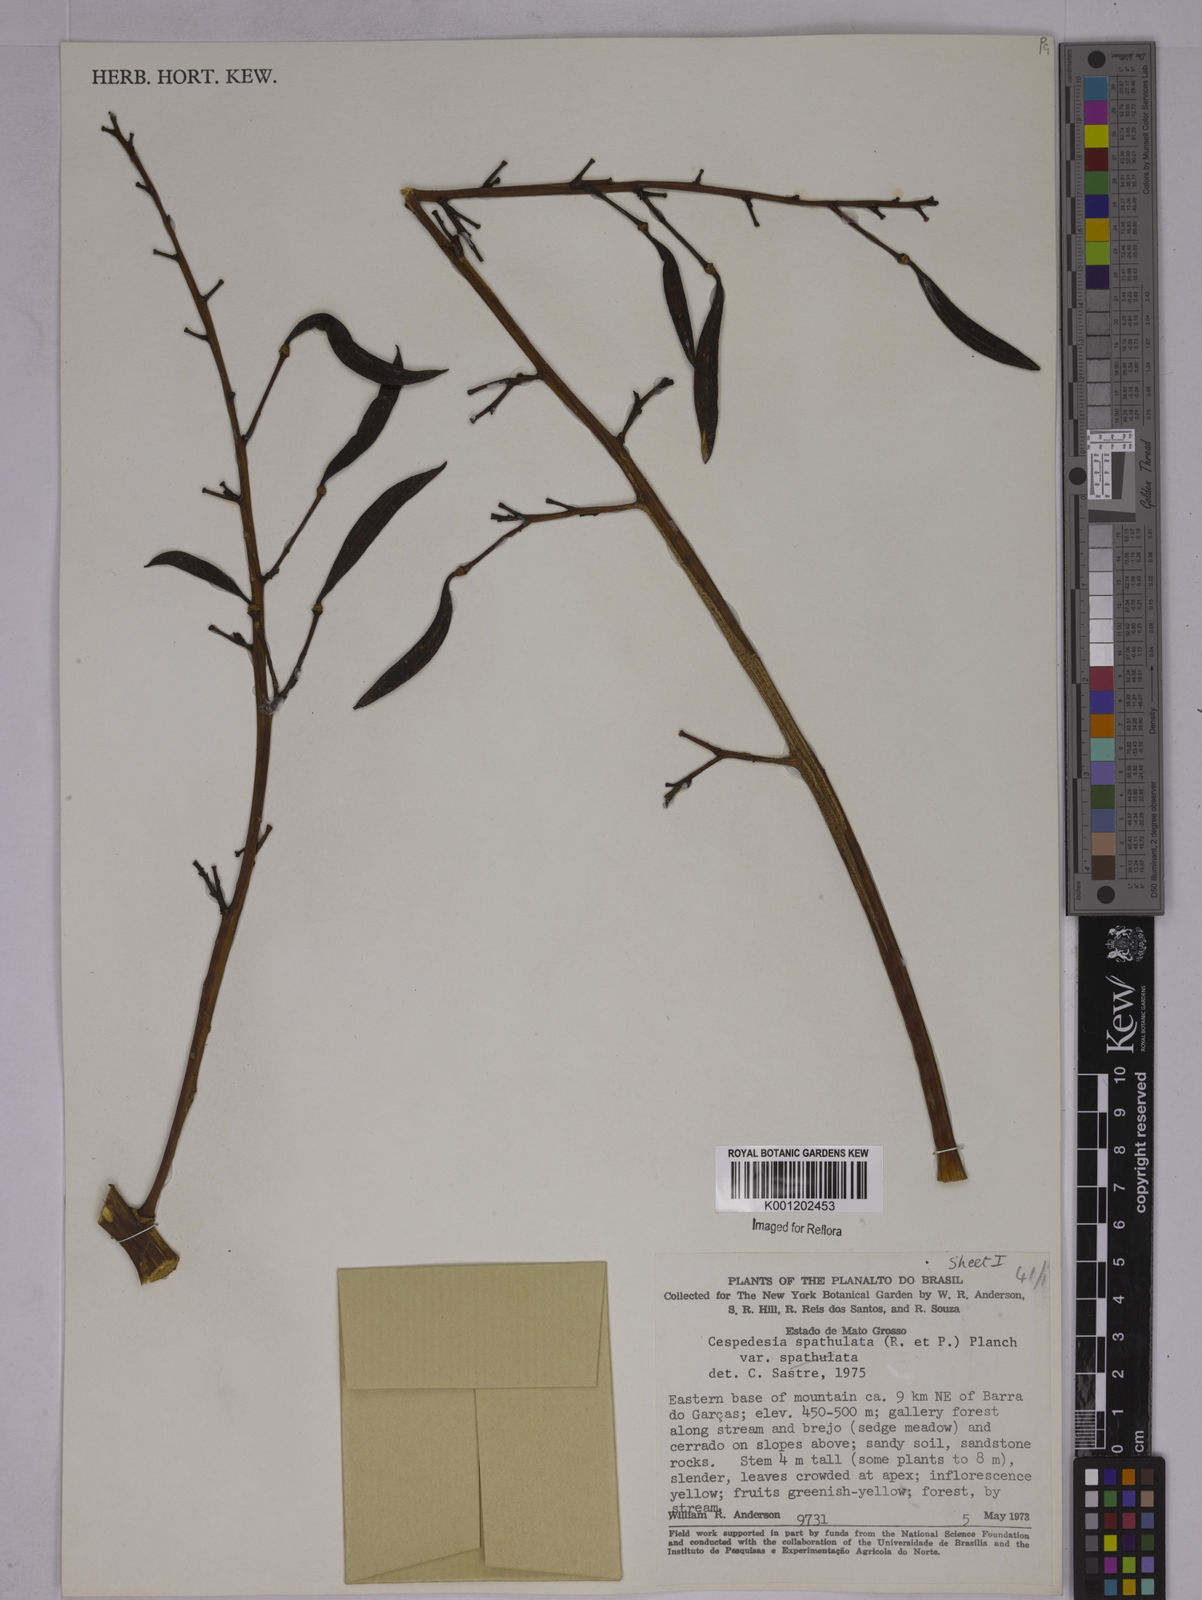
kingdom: Plantae
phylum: Tracheophyta
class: Magnoliopsida
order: Malpighiales
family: Ochnaceae
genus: Cespedesia
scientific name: Cespedesia spathulata
